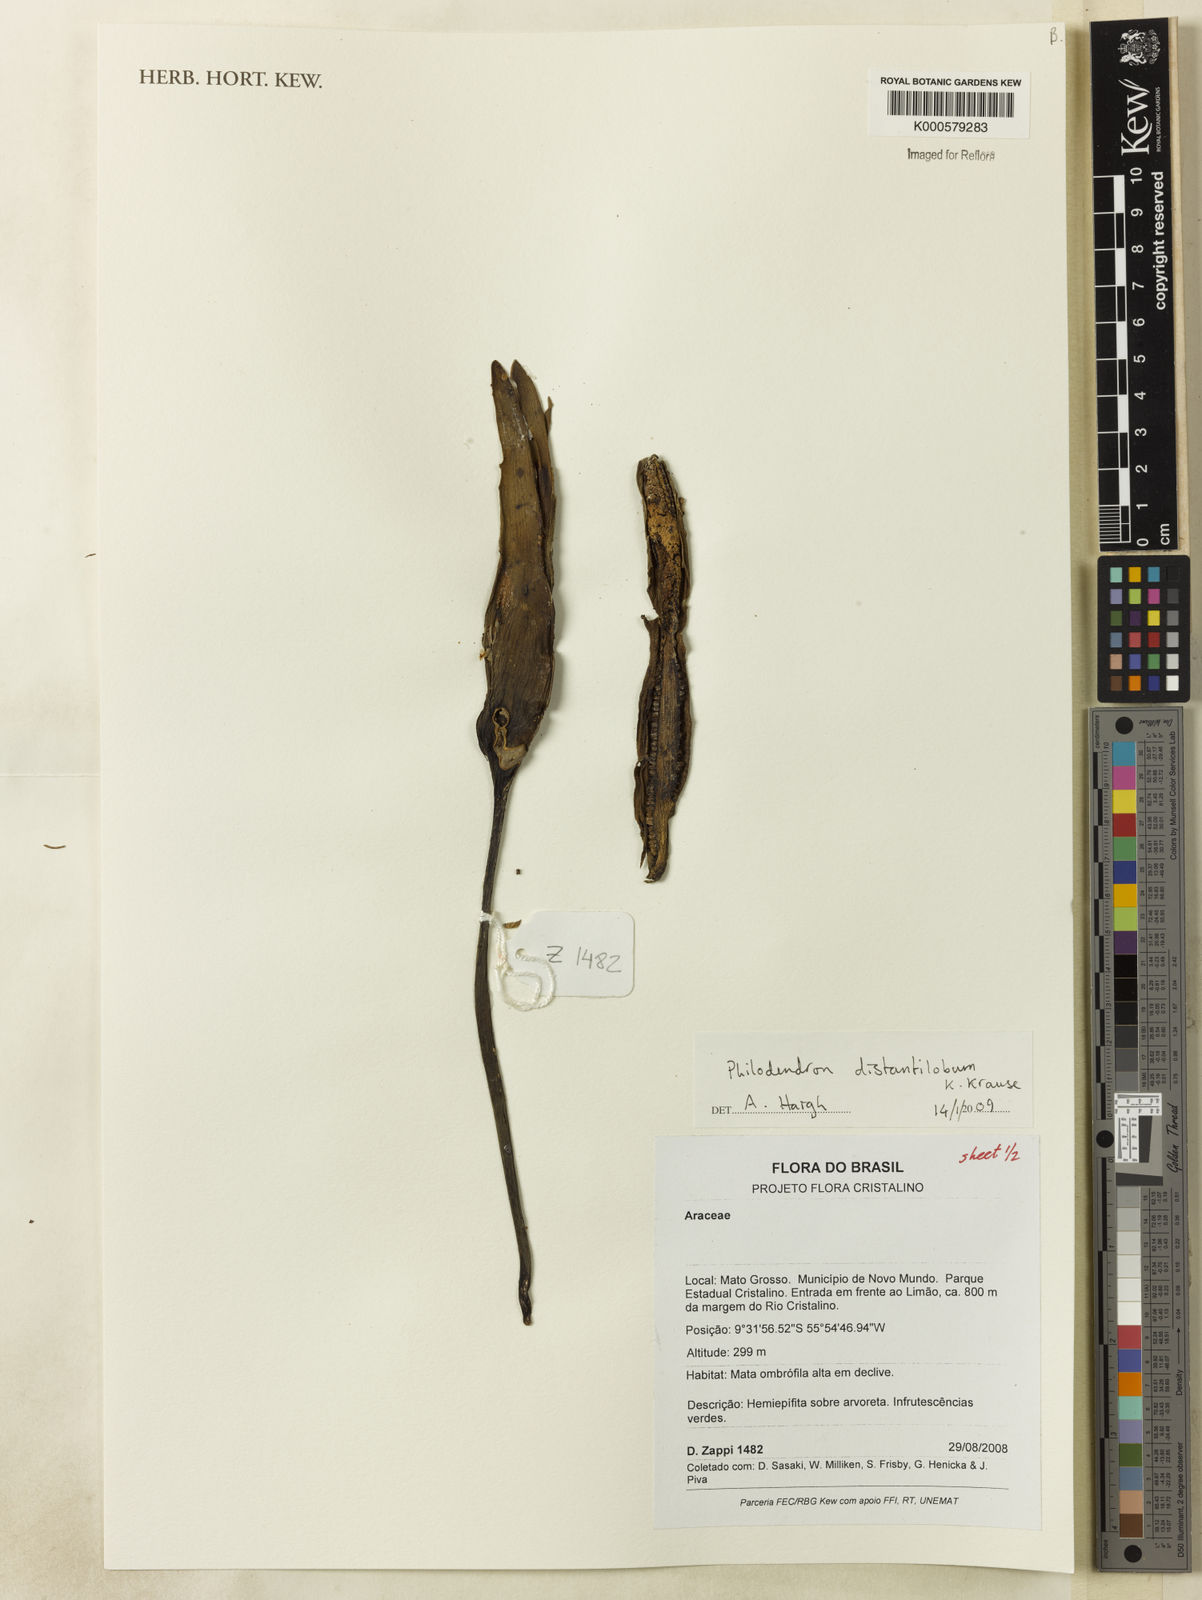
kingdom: Plantae
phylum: Tracheophyta
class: Liliopsida
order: Alismatales
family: Araceae
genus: Philodendron
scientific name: Philodendron
